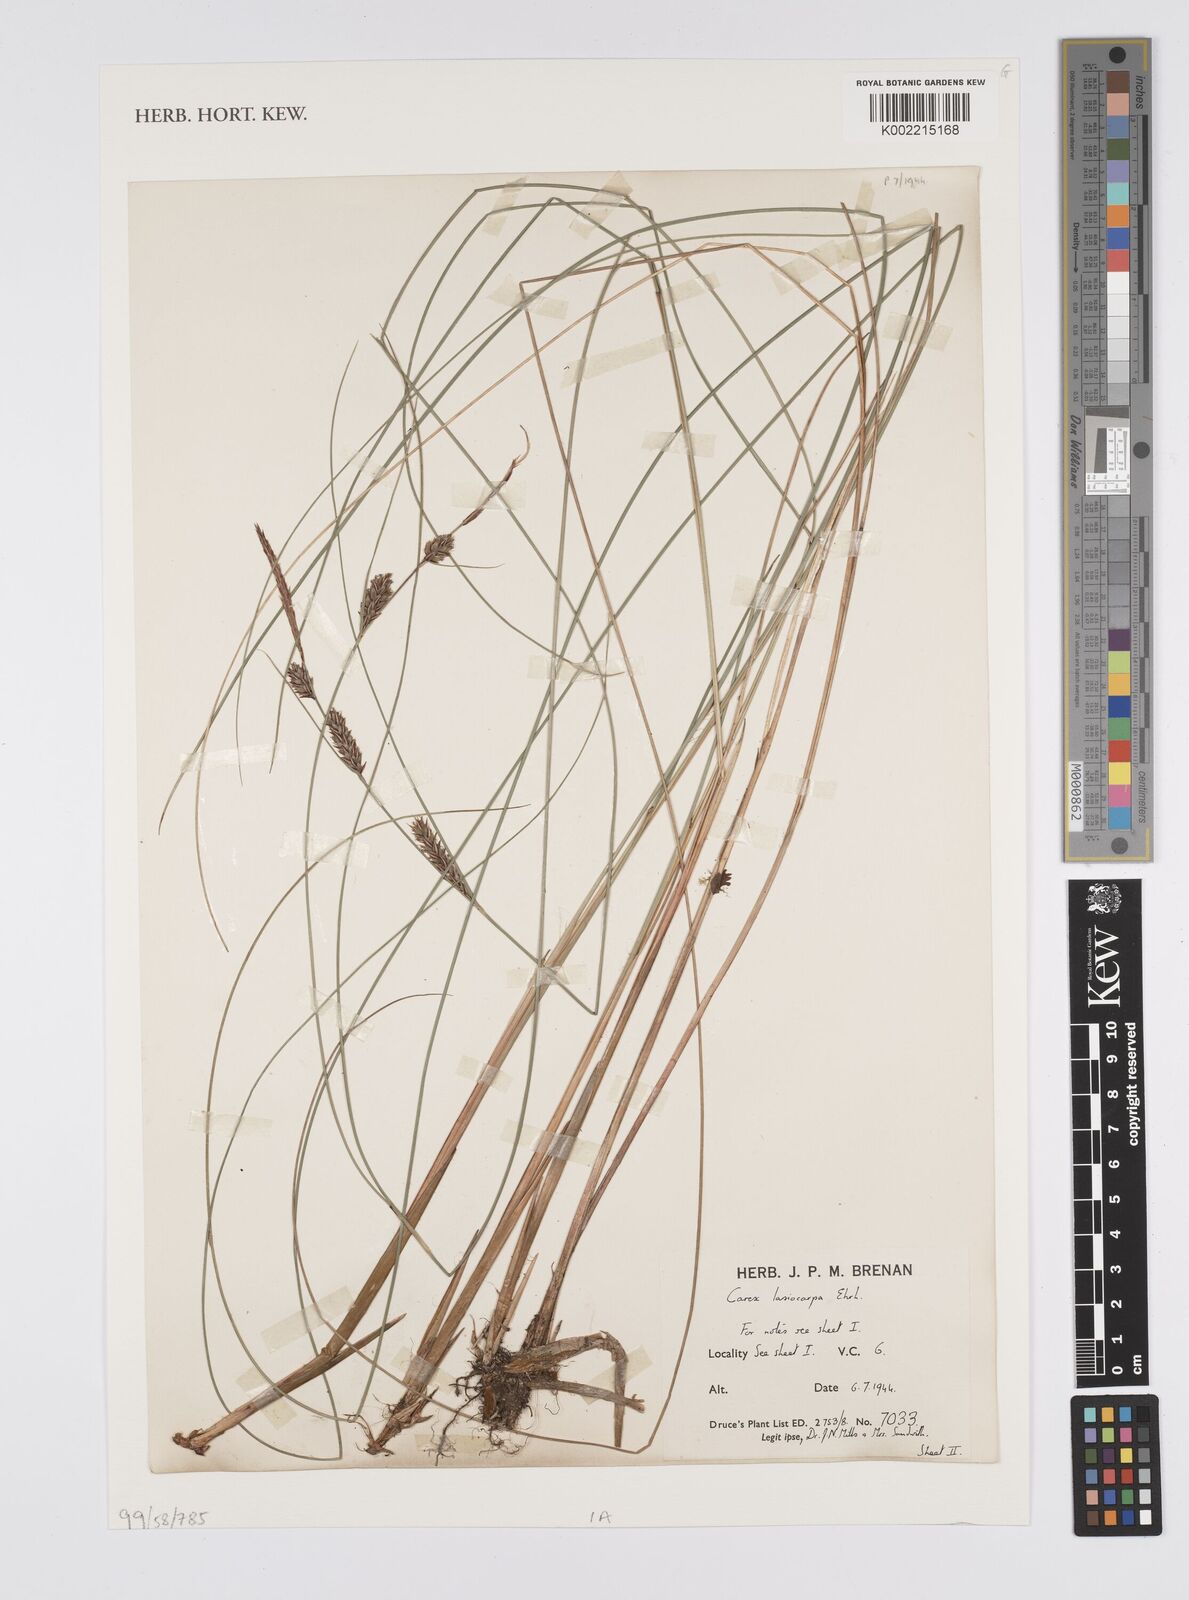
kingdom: Plantae
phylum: Tracheophyta
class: Liliopsida
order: Poales
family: Cyperaceae
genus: Carex
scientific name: Carex lasiocarpa
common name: Slender sedge
